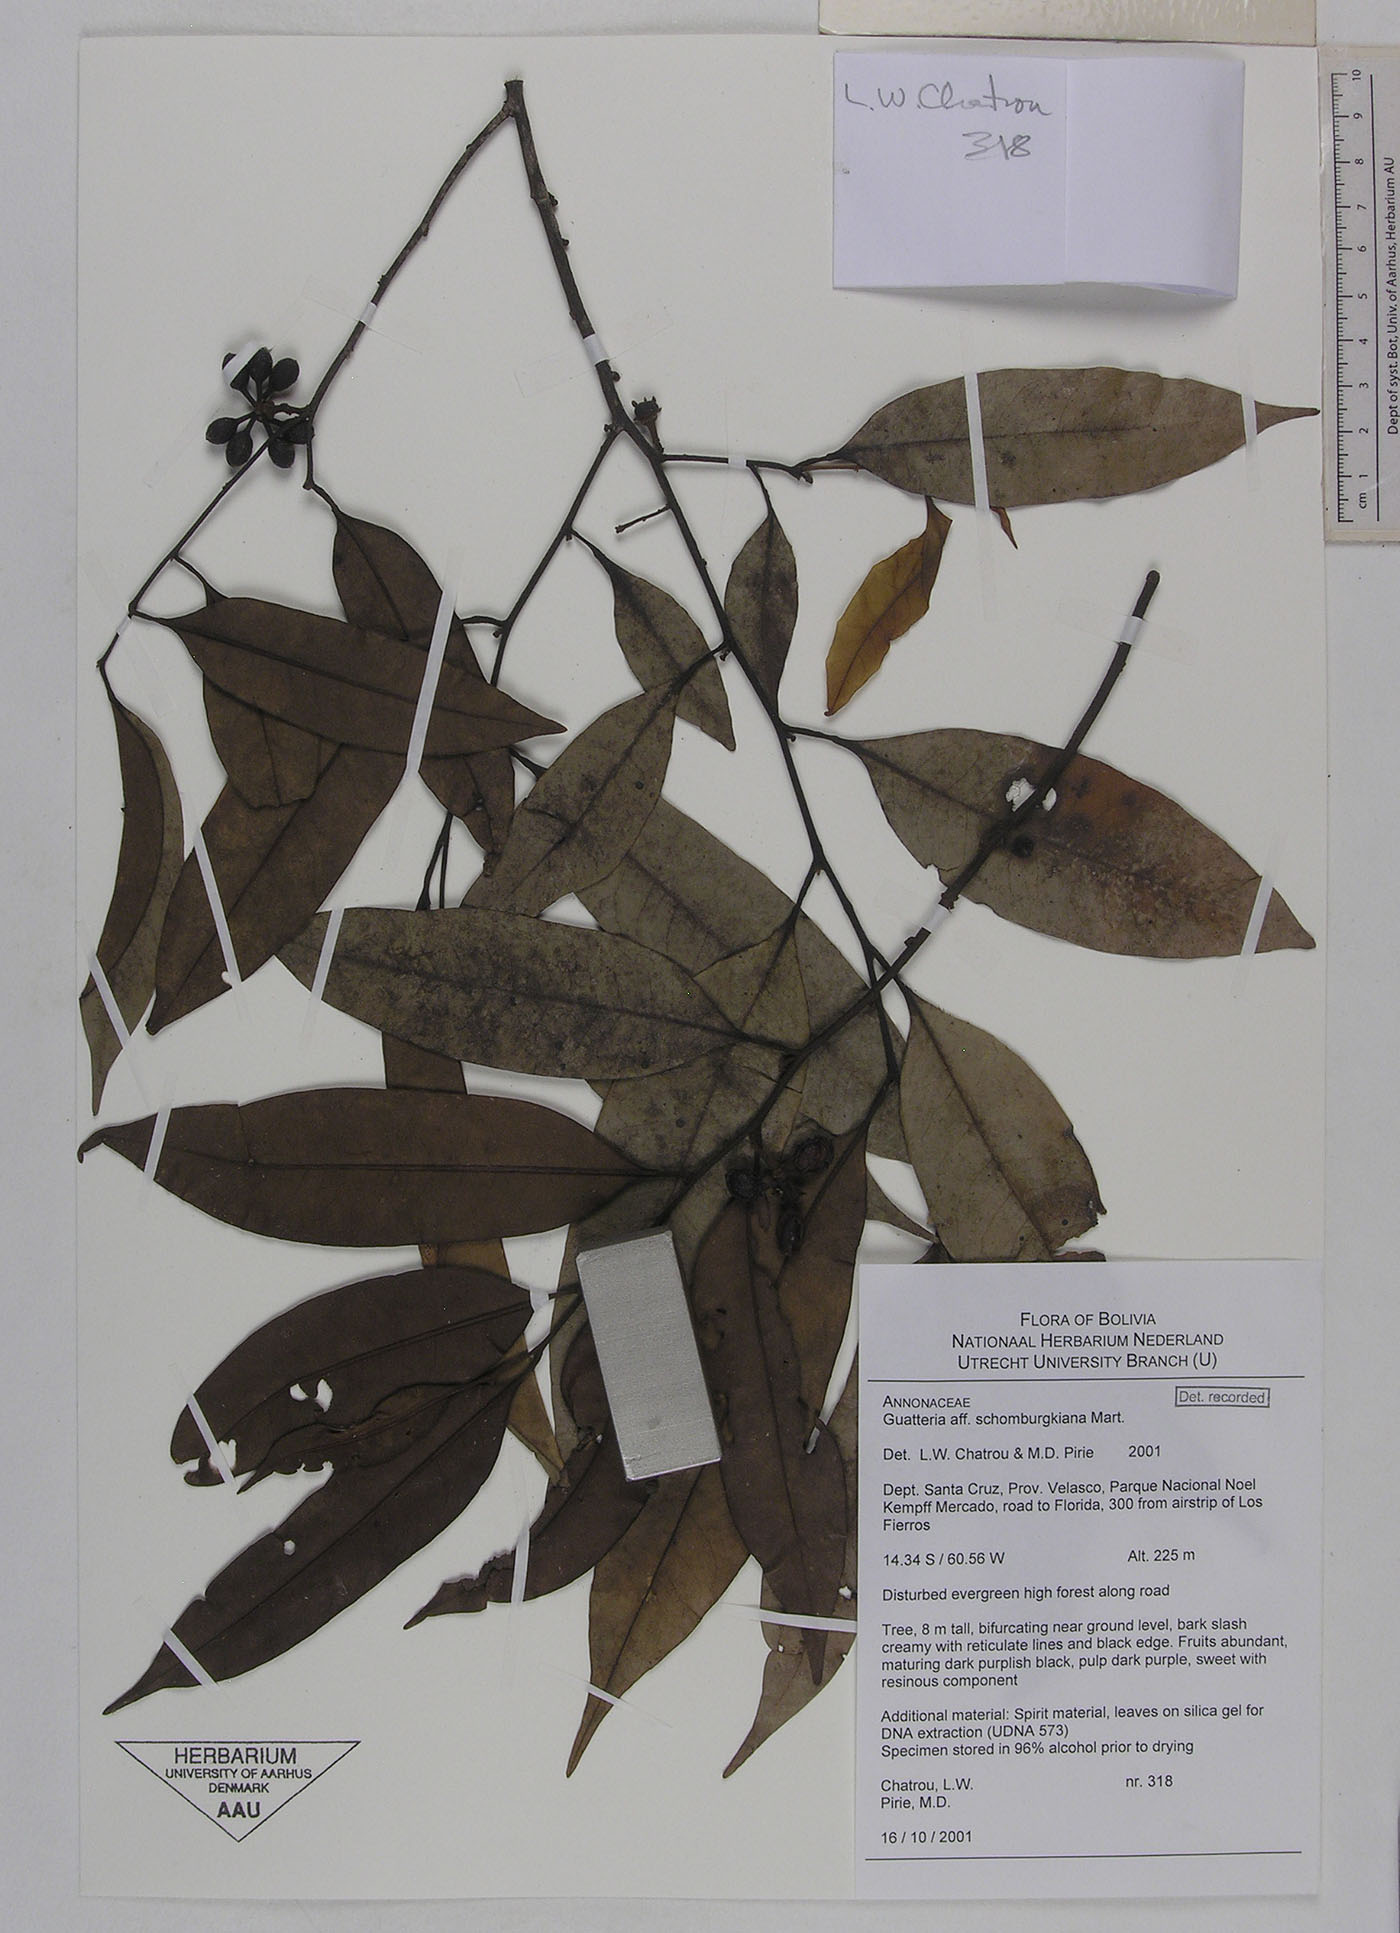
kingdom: Plantae
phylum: Tracheophyta
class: Magnoliopsida
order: Magnoliales
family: Annonaceae
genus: Guatteria
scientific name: Guatteria schomburgkiana
